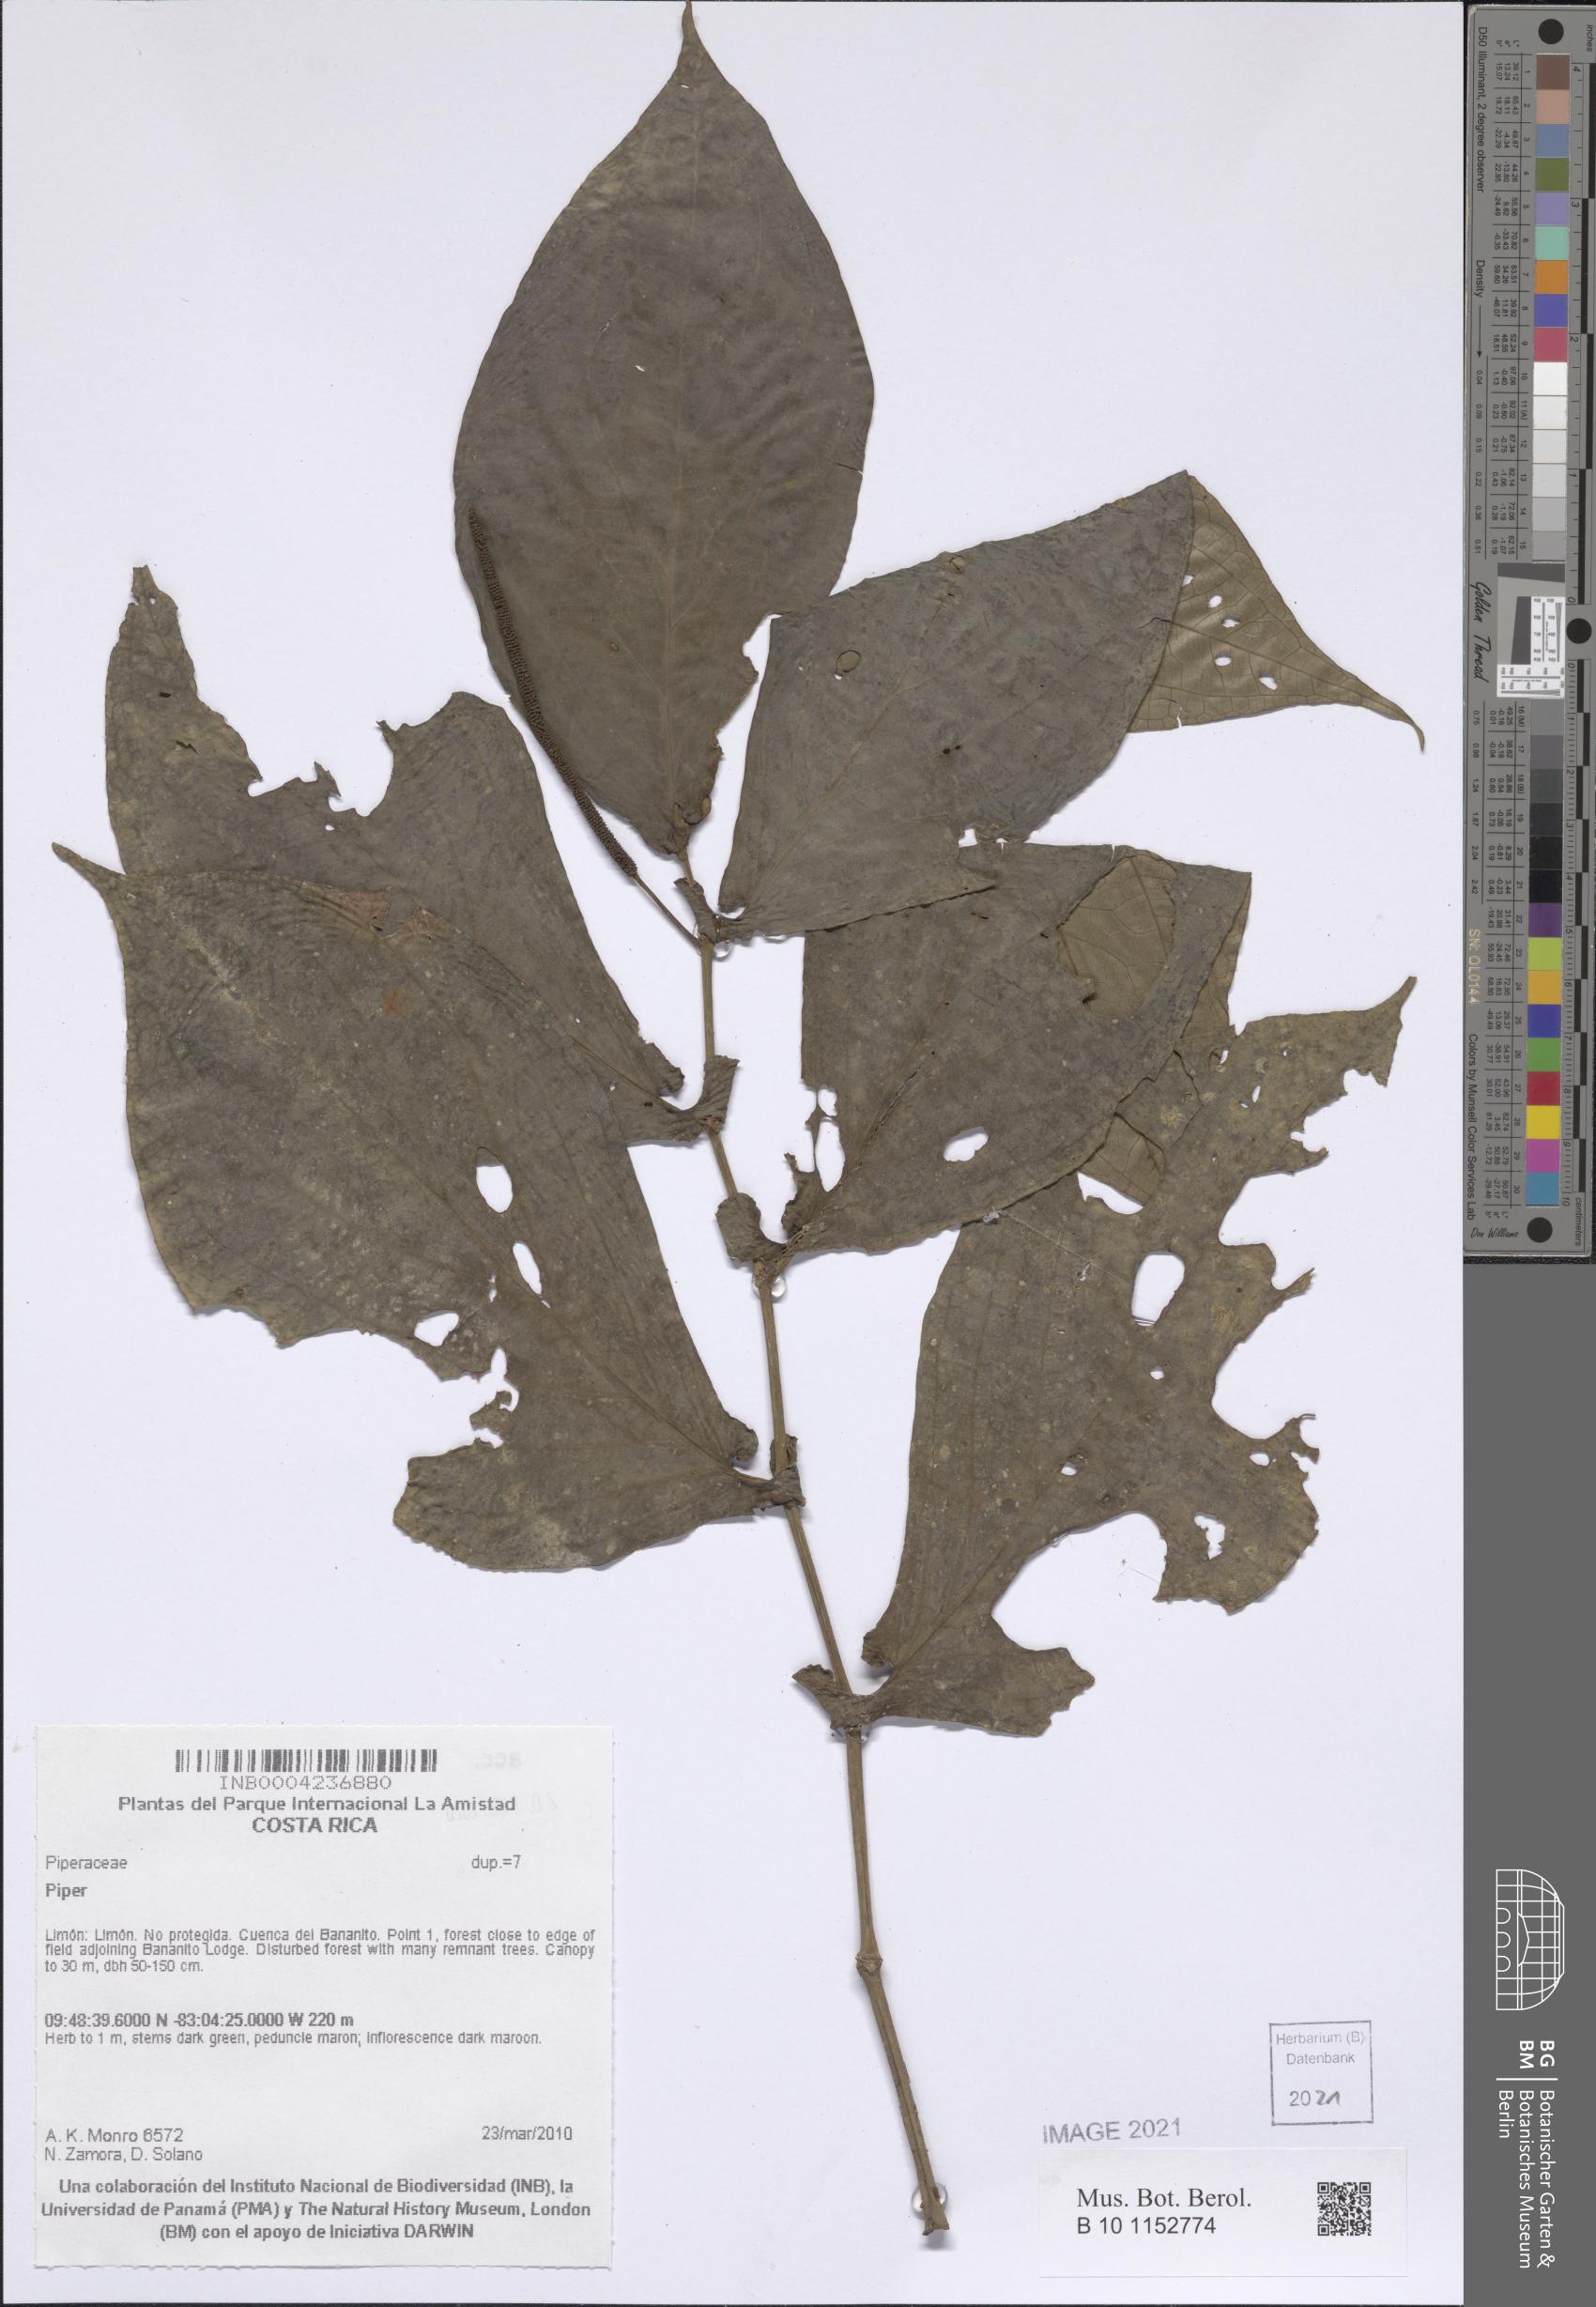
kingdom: Plantae
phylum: Tracheophyta
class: Magnoliopsida
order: Piperales
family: Piperaceae
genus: Piper
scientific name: Piper
